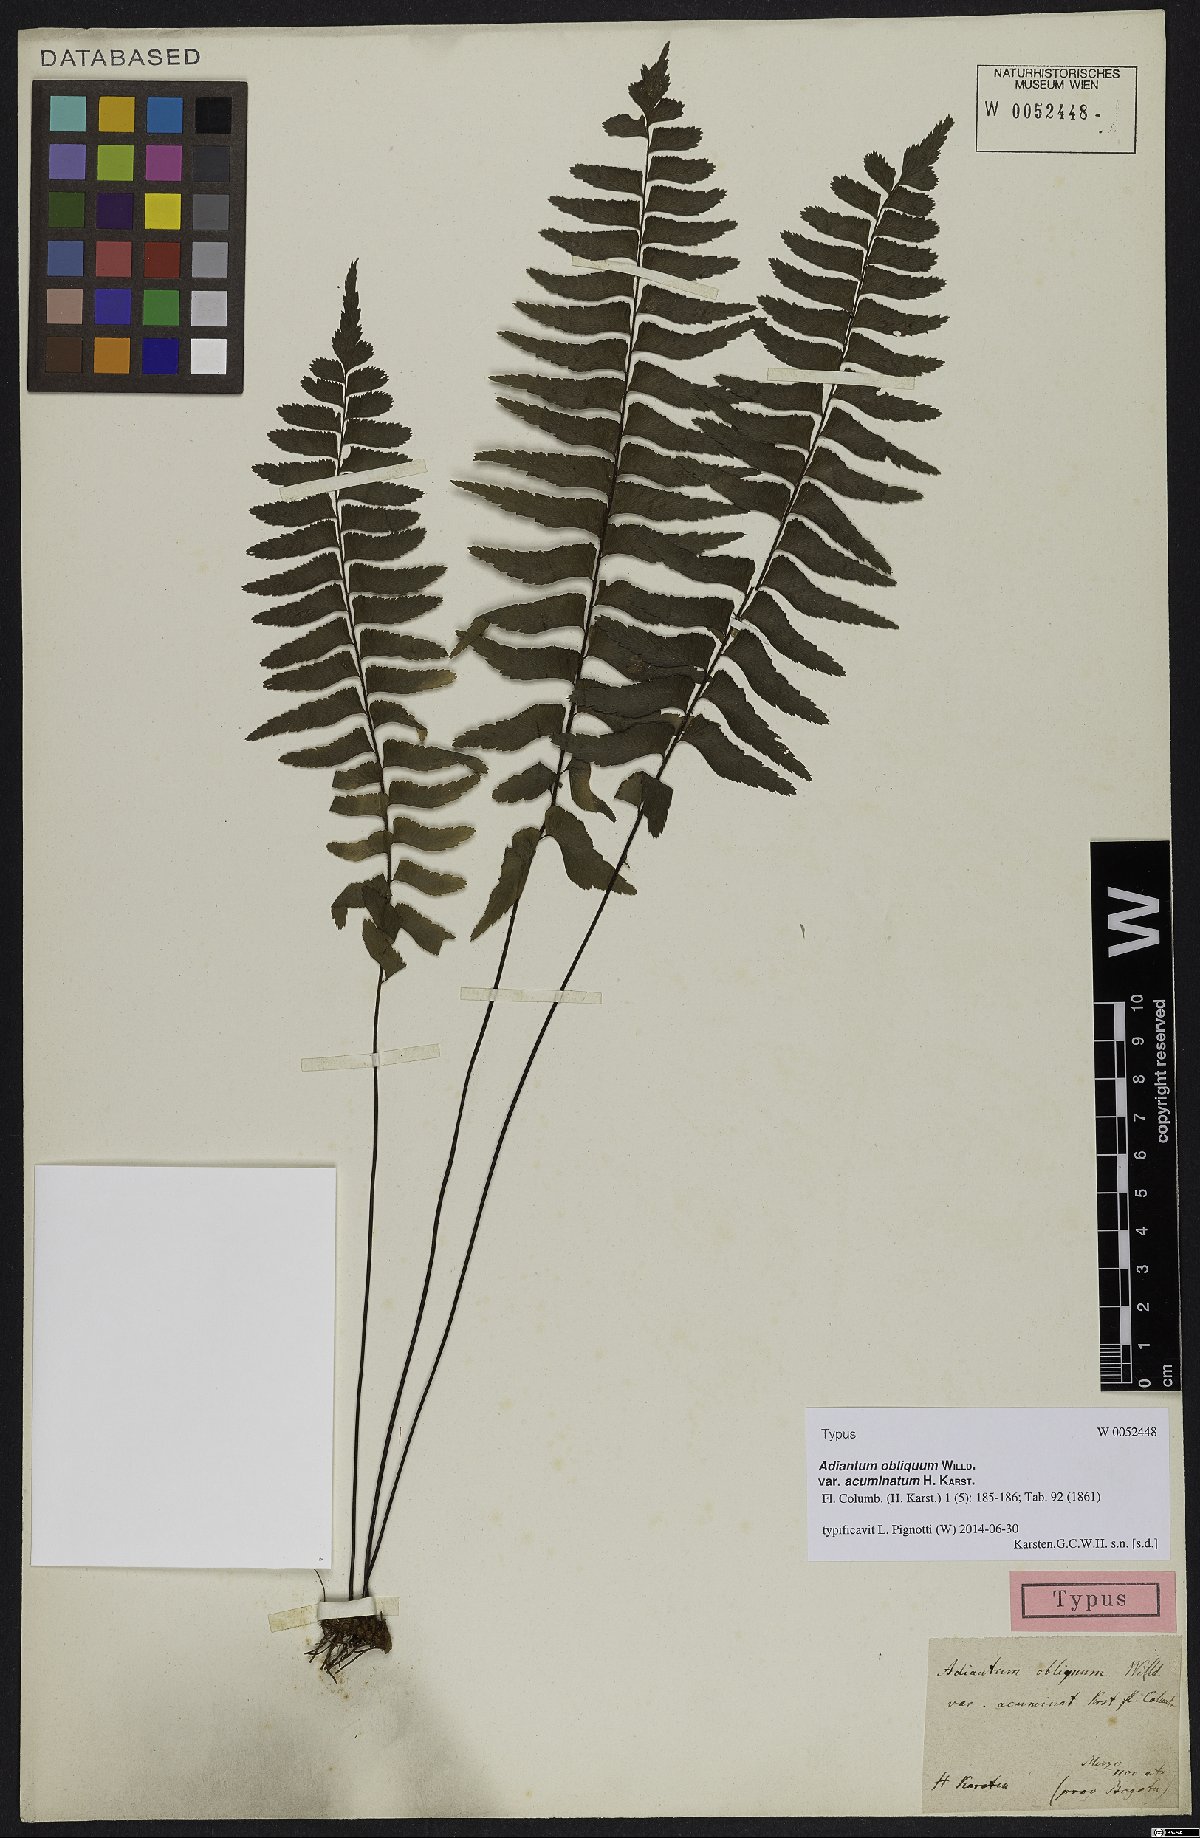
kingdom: Plantae
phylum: Tracheophyta
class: Polypodiopsida
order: Polypodiales
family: Pteridaceae
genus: Adiantum
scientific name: Adiantum obliquum
